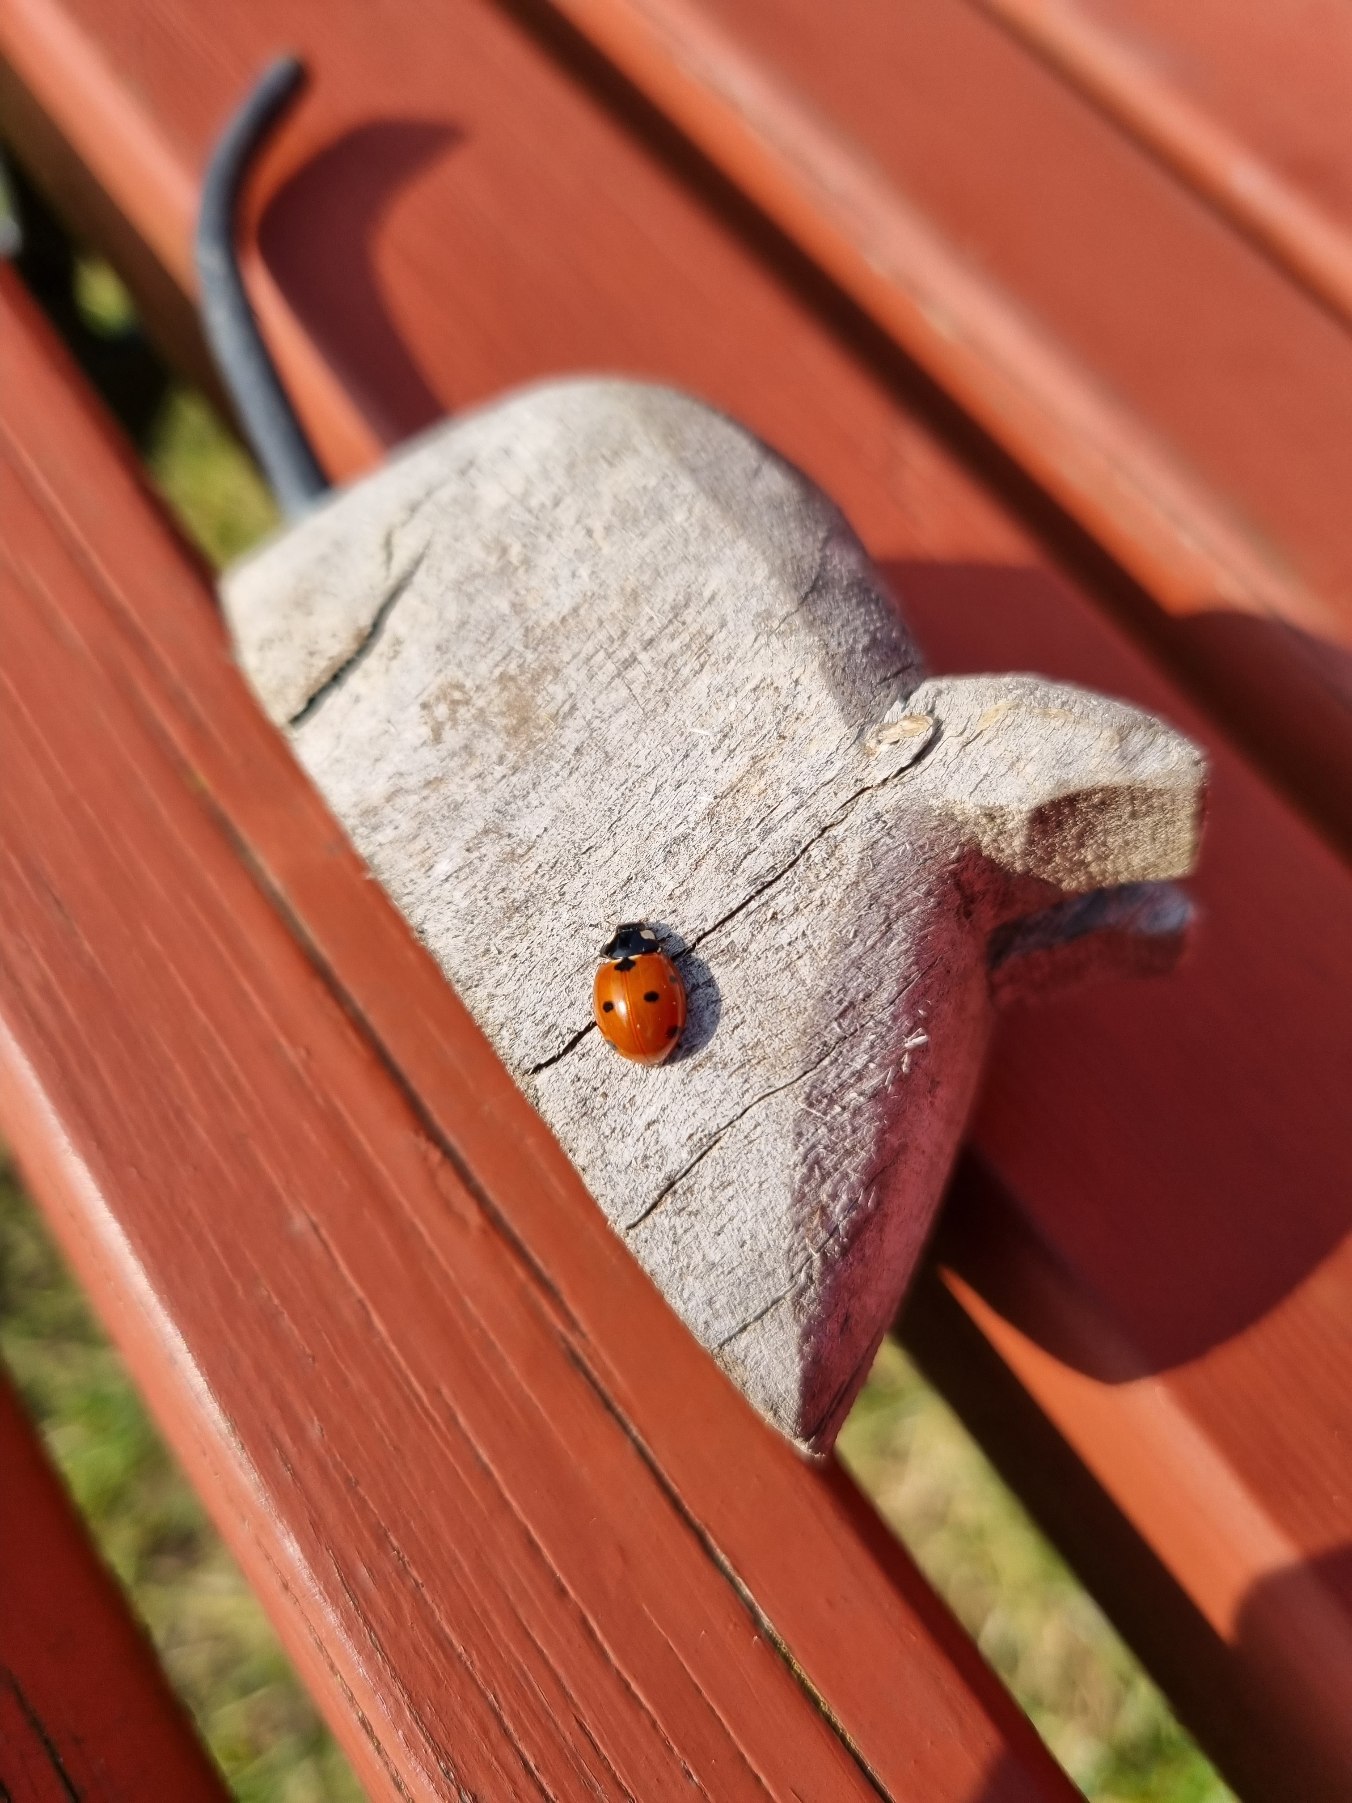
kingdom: Animalia
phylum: Arthropoda
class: Insecta
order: Coleoptera
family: Coccinellidae
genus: Coccinella
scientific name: Coccinella septempunctata
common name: Syvplettet mariehøne
